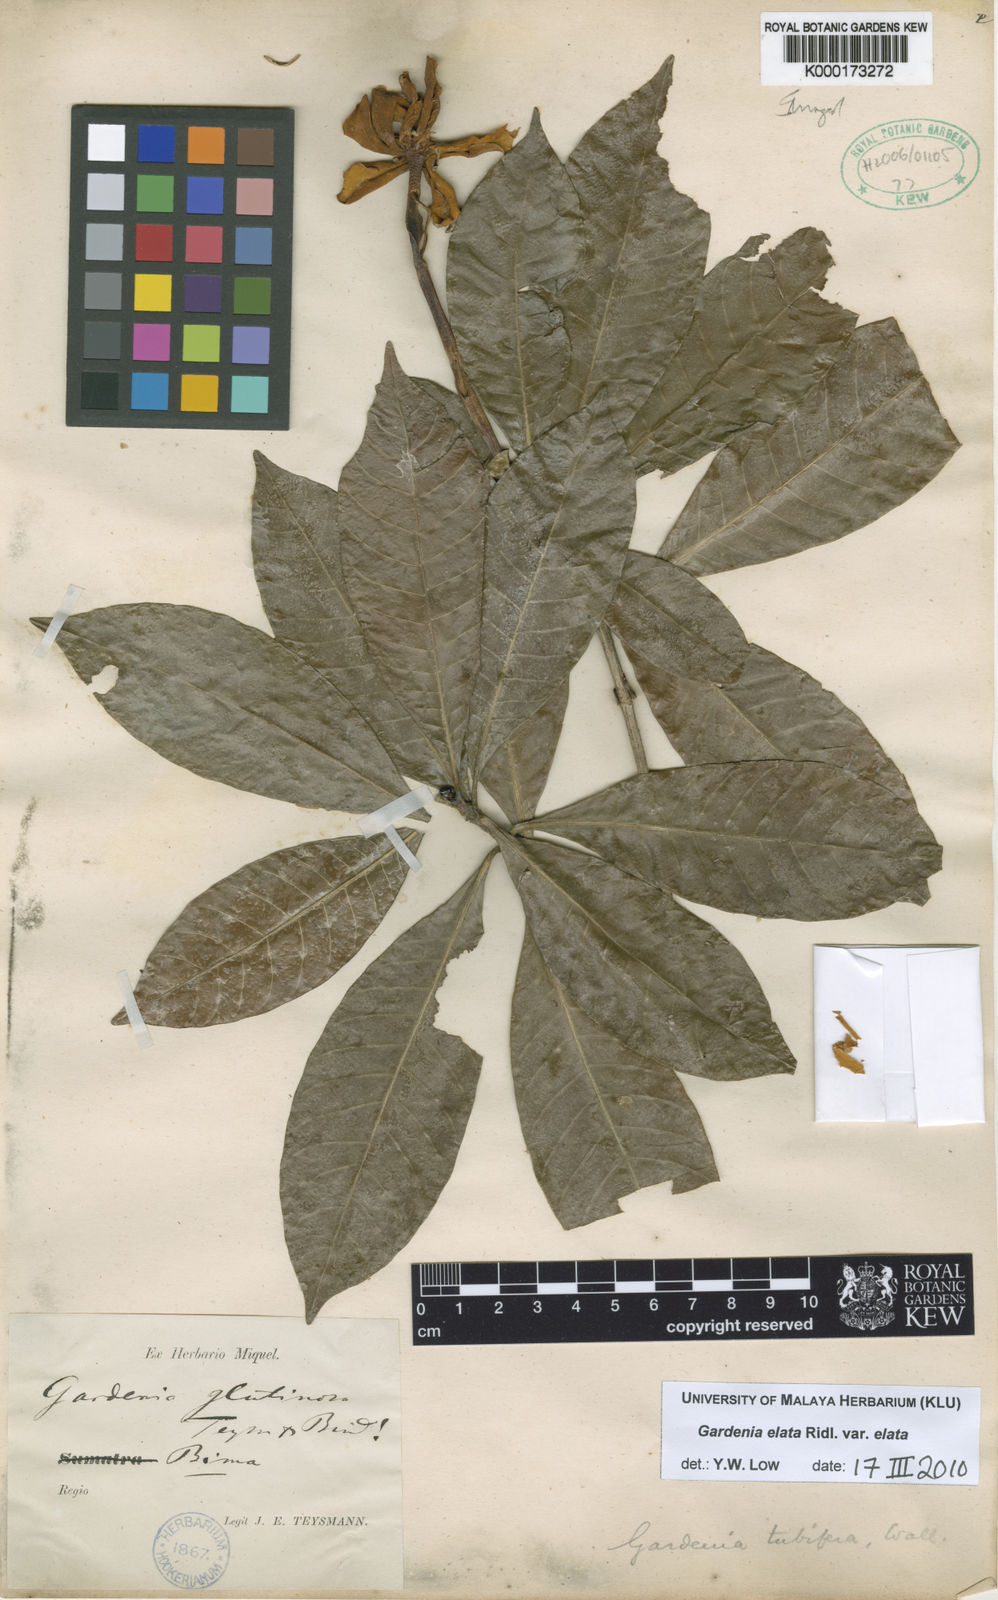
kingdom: Plantae
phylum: Tracheophyta
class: Magnoliopsida
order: Gentianales
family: Rubiaceae
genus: Gardenia
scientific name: Gardenia elata
